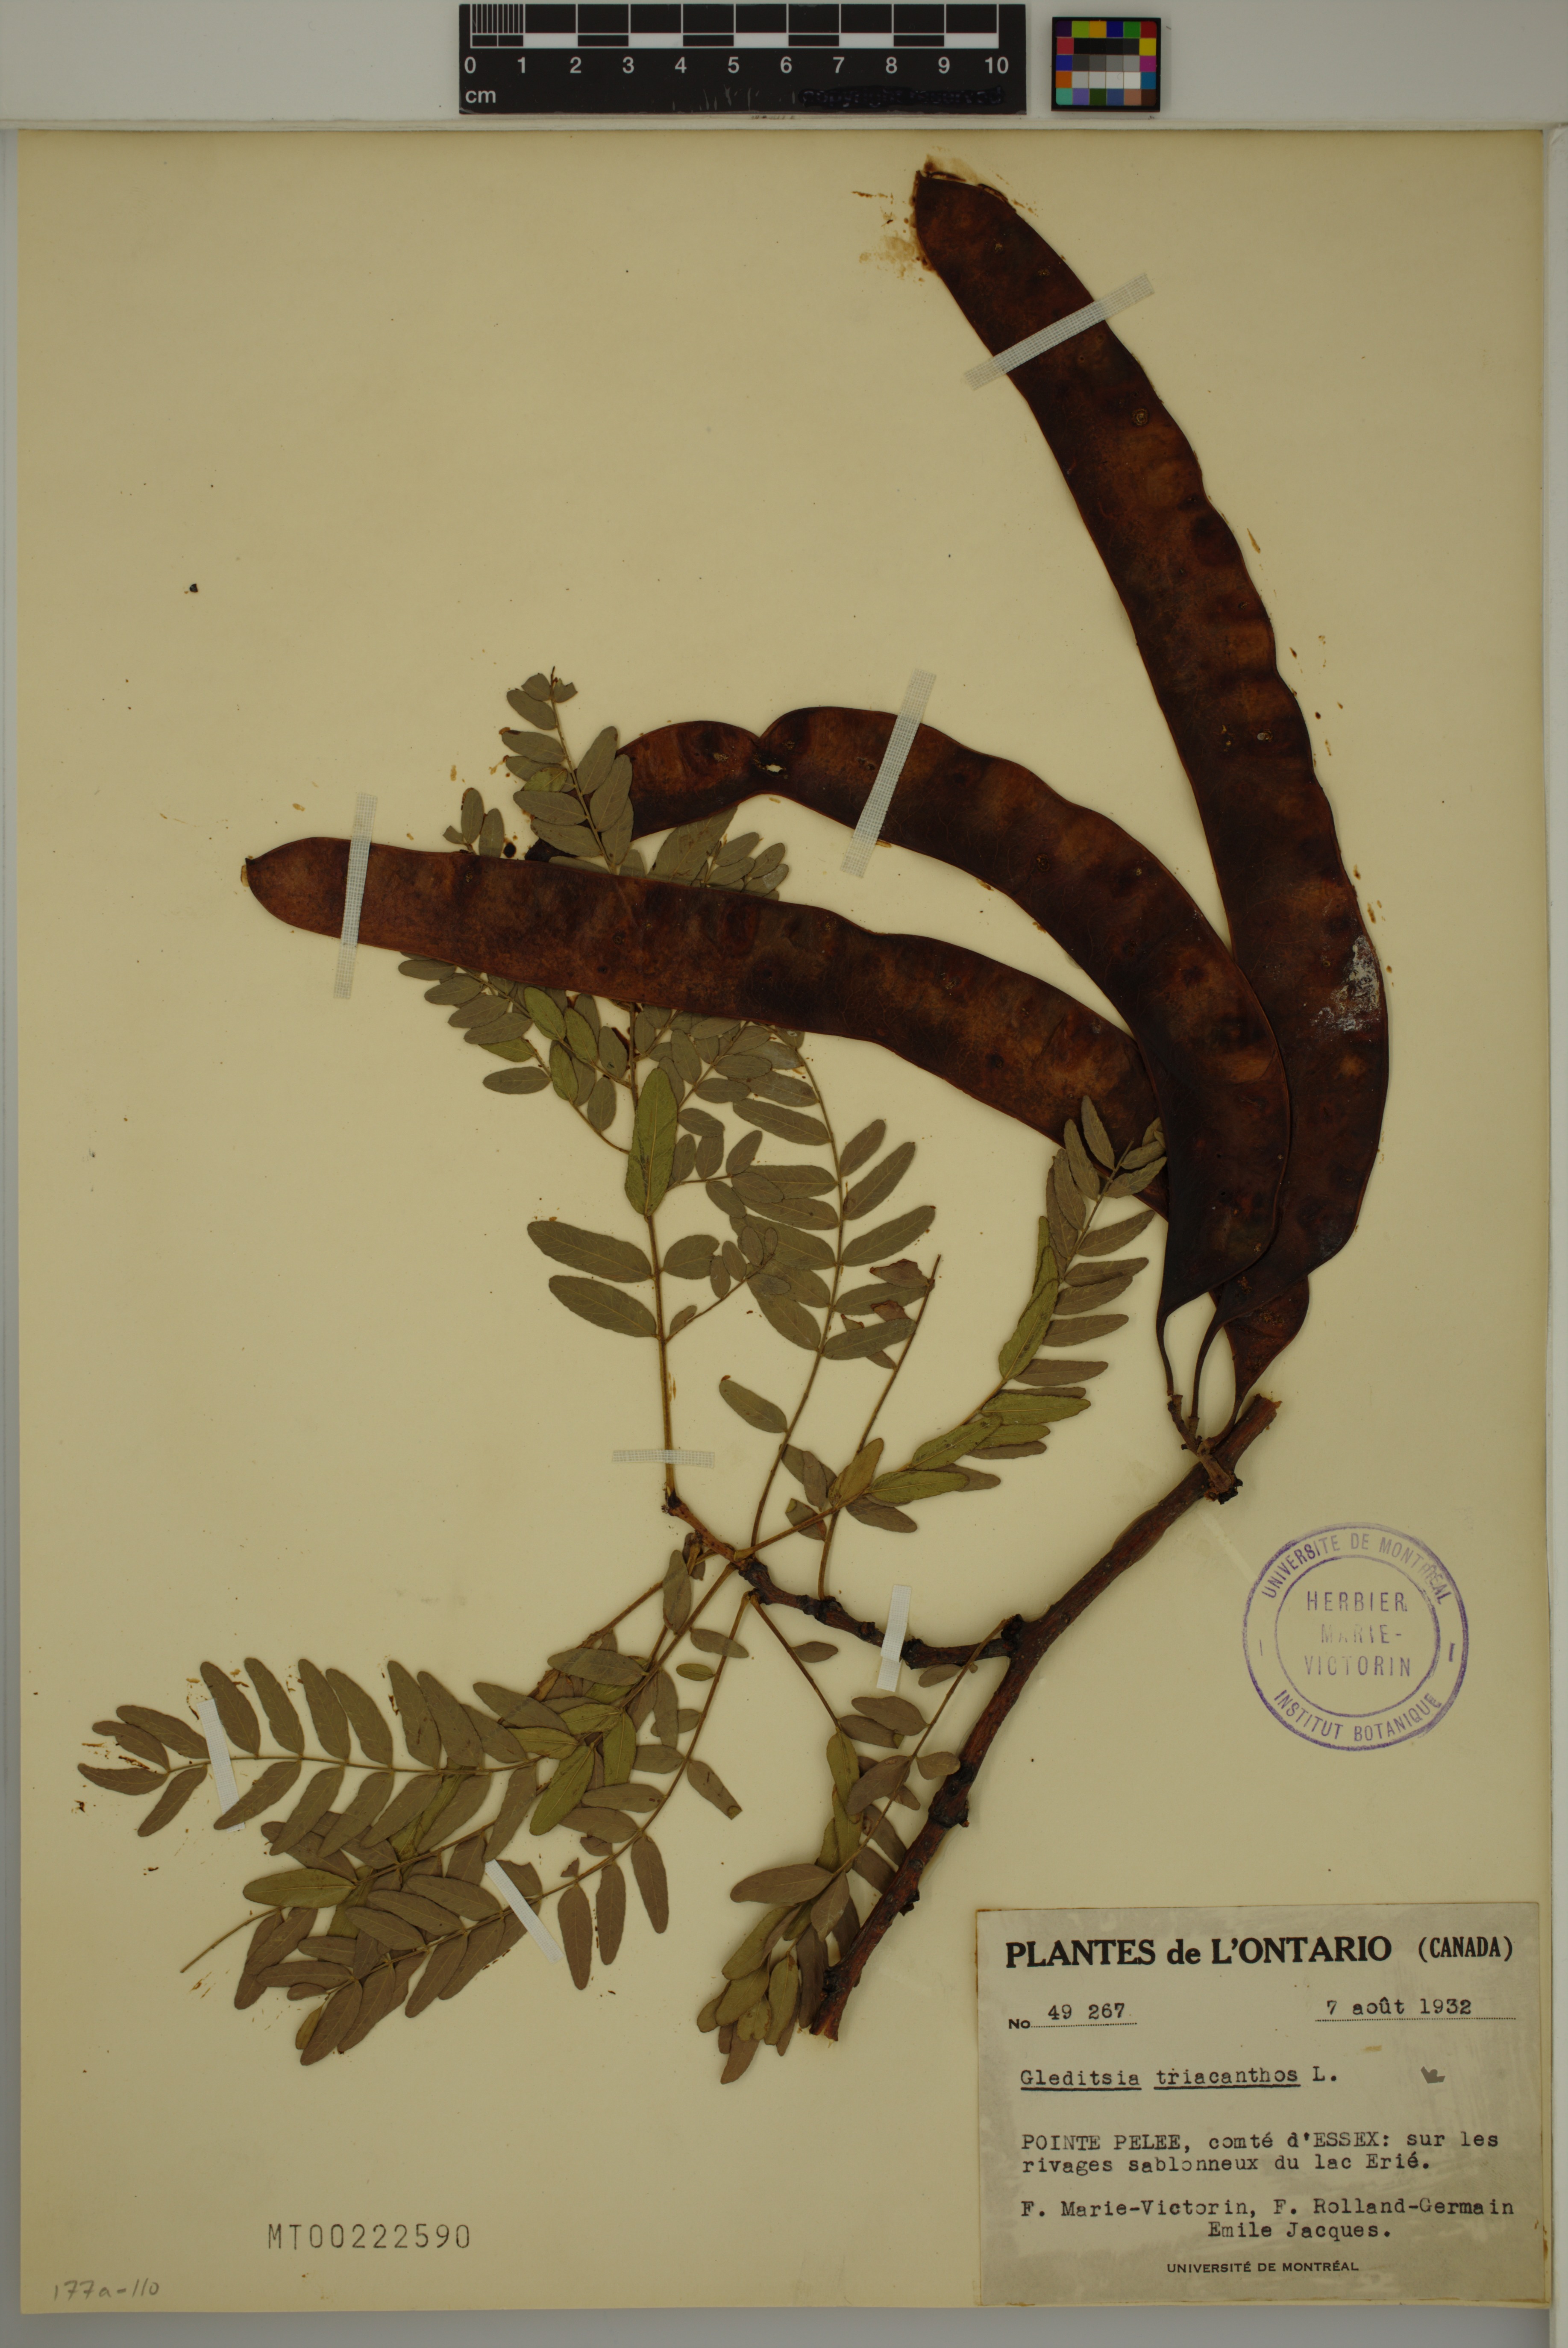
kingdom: Plantae
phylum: Tracheophyta
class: Magnoliopsida
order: Fabales
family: Fabaceae
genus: Gleditsia
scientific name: Gleditsia triacanthos
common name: Common honeylocust
